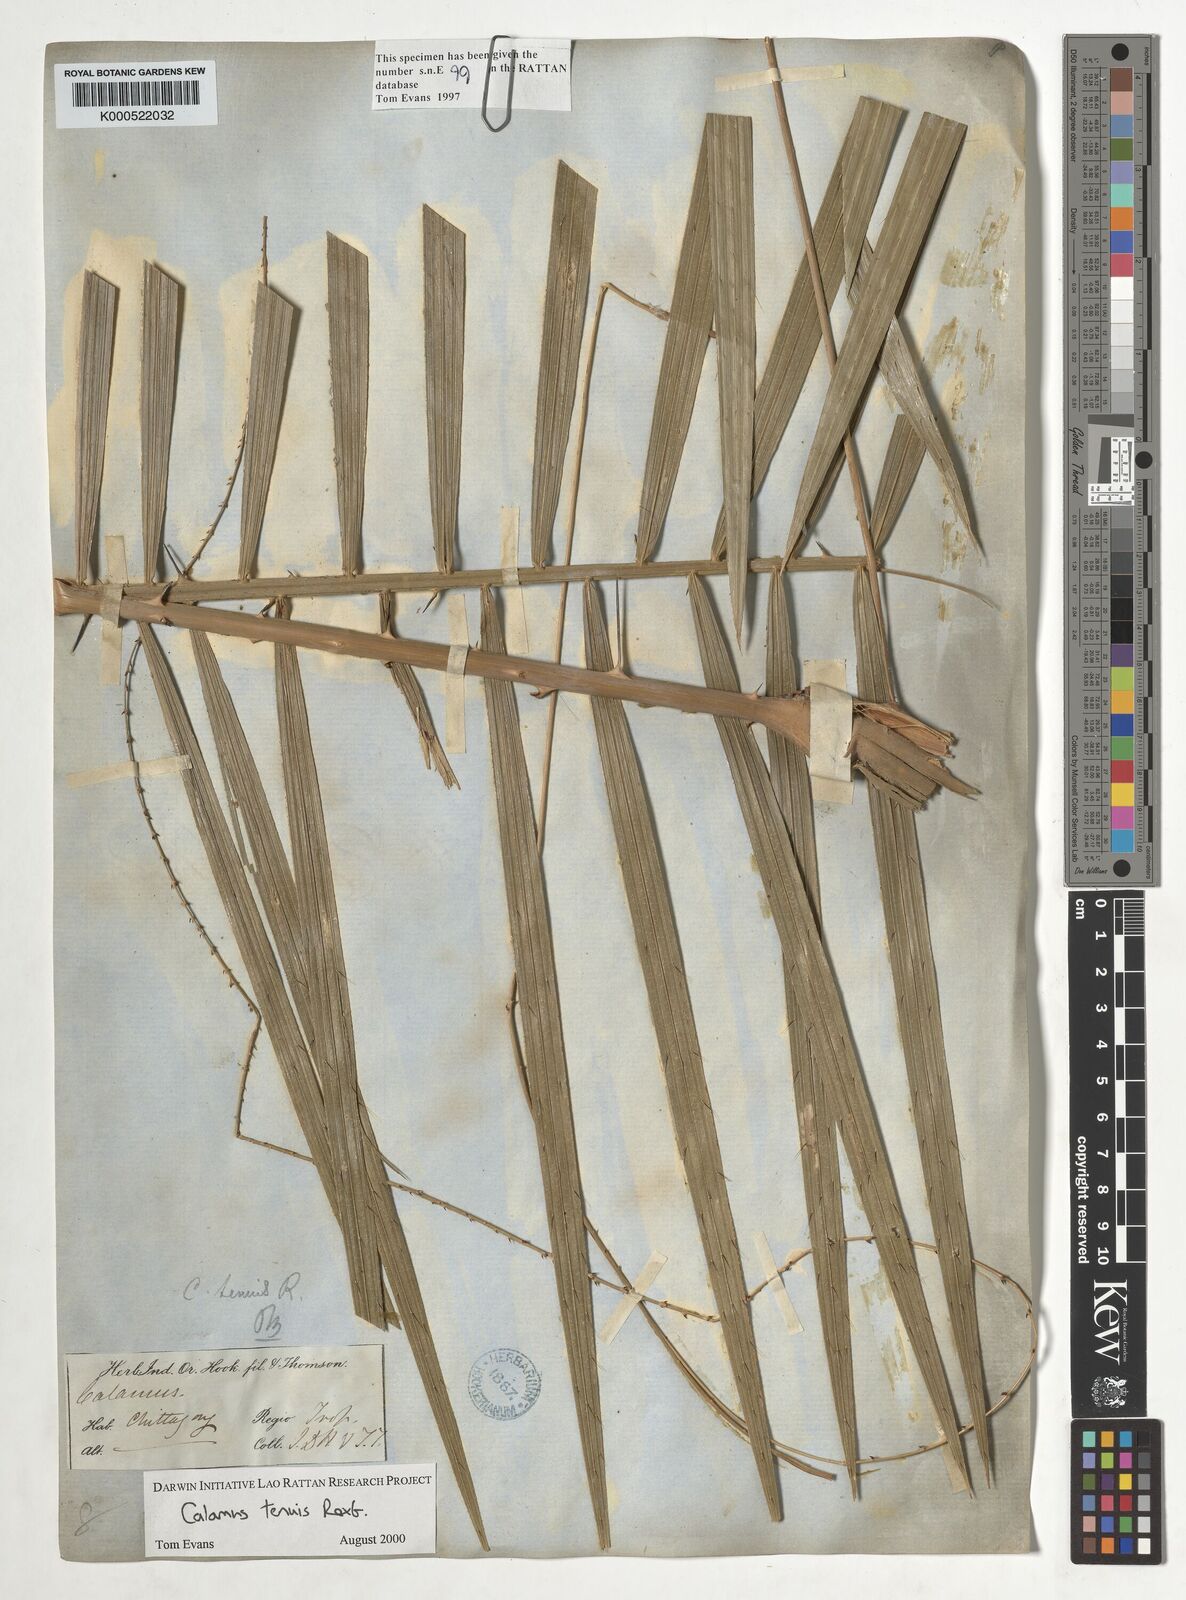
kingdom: Plantae
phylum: Tracheophyta
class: Liliopsida
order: Arecales
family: Arecaceae
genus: Calamus
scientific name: Calamus tenuis
